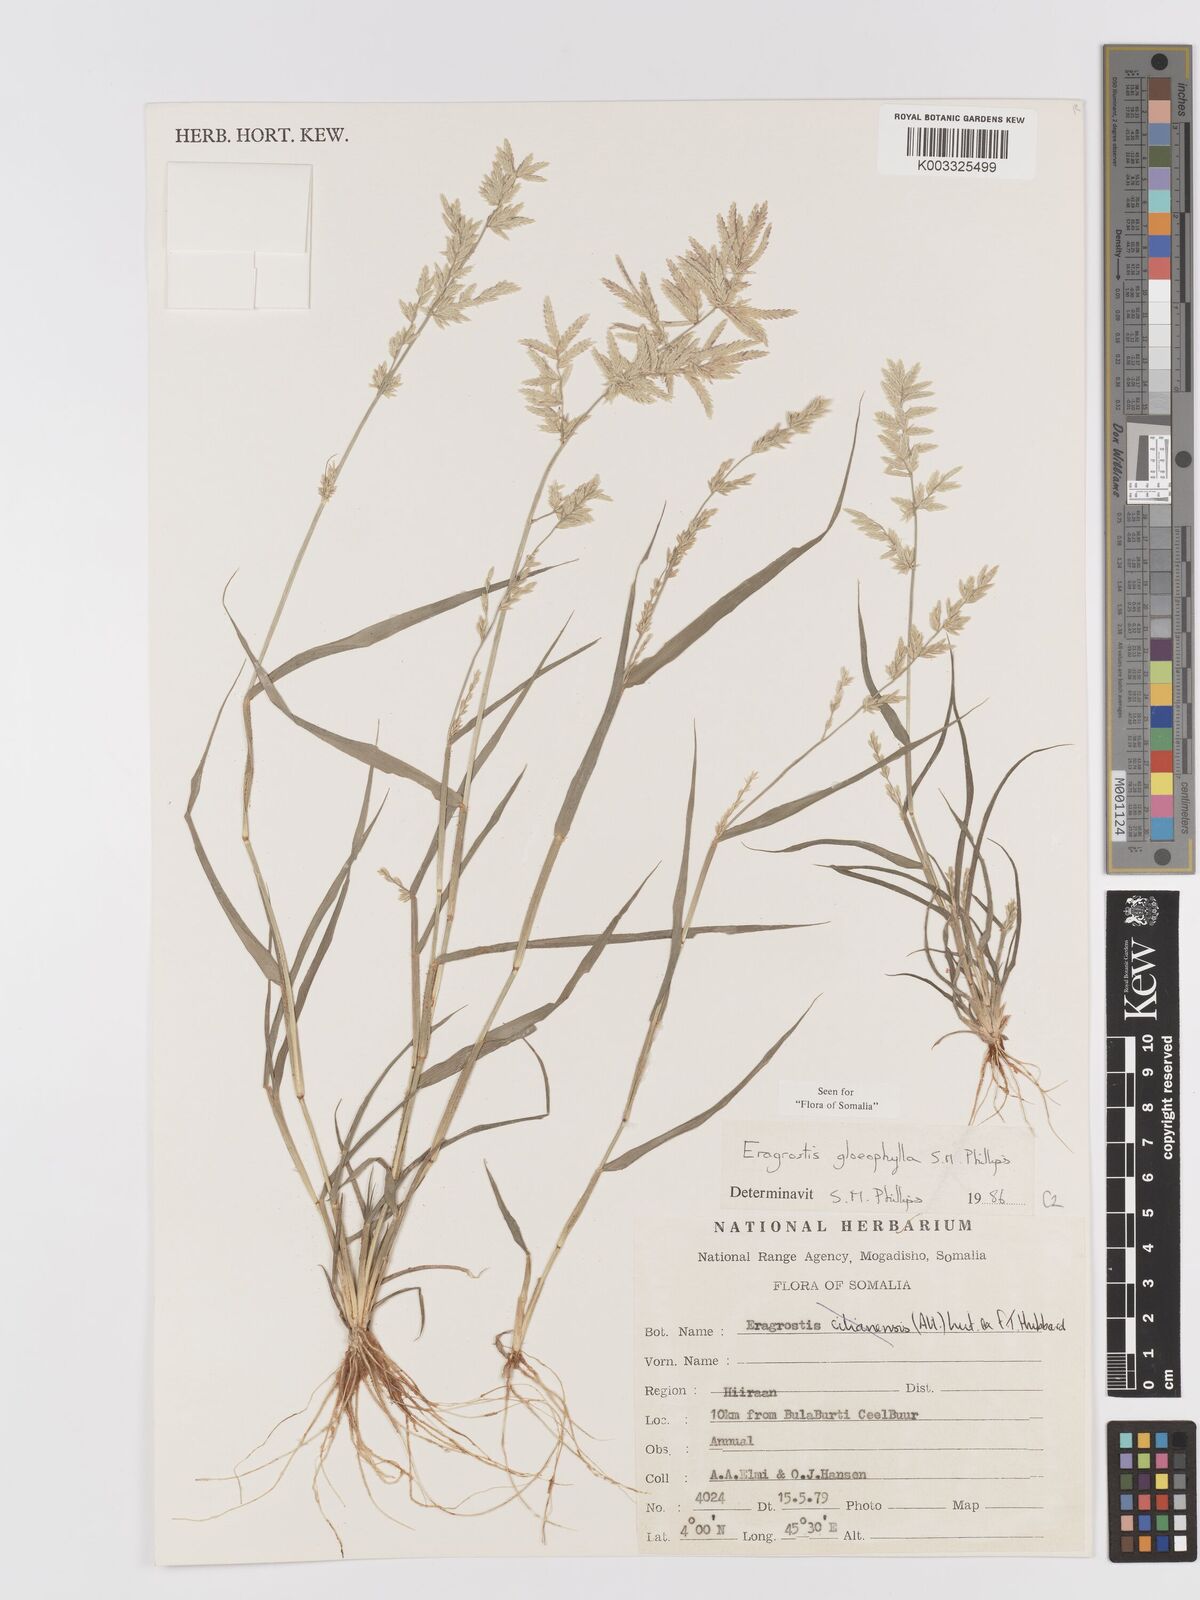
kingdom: Plantae
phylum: Tracheophyta
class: Liliopsida
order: Poales
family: Poaceae
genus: Eragrostis
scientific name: Eragrostis gloeophylla
